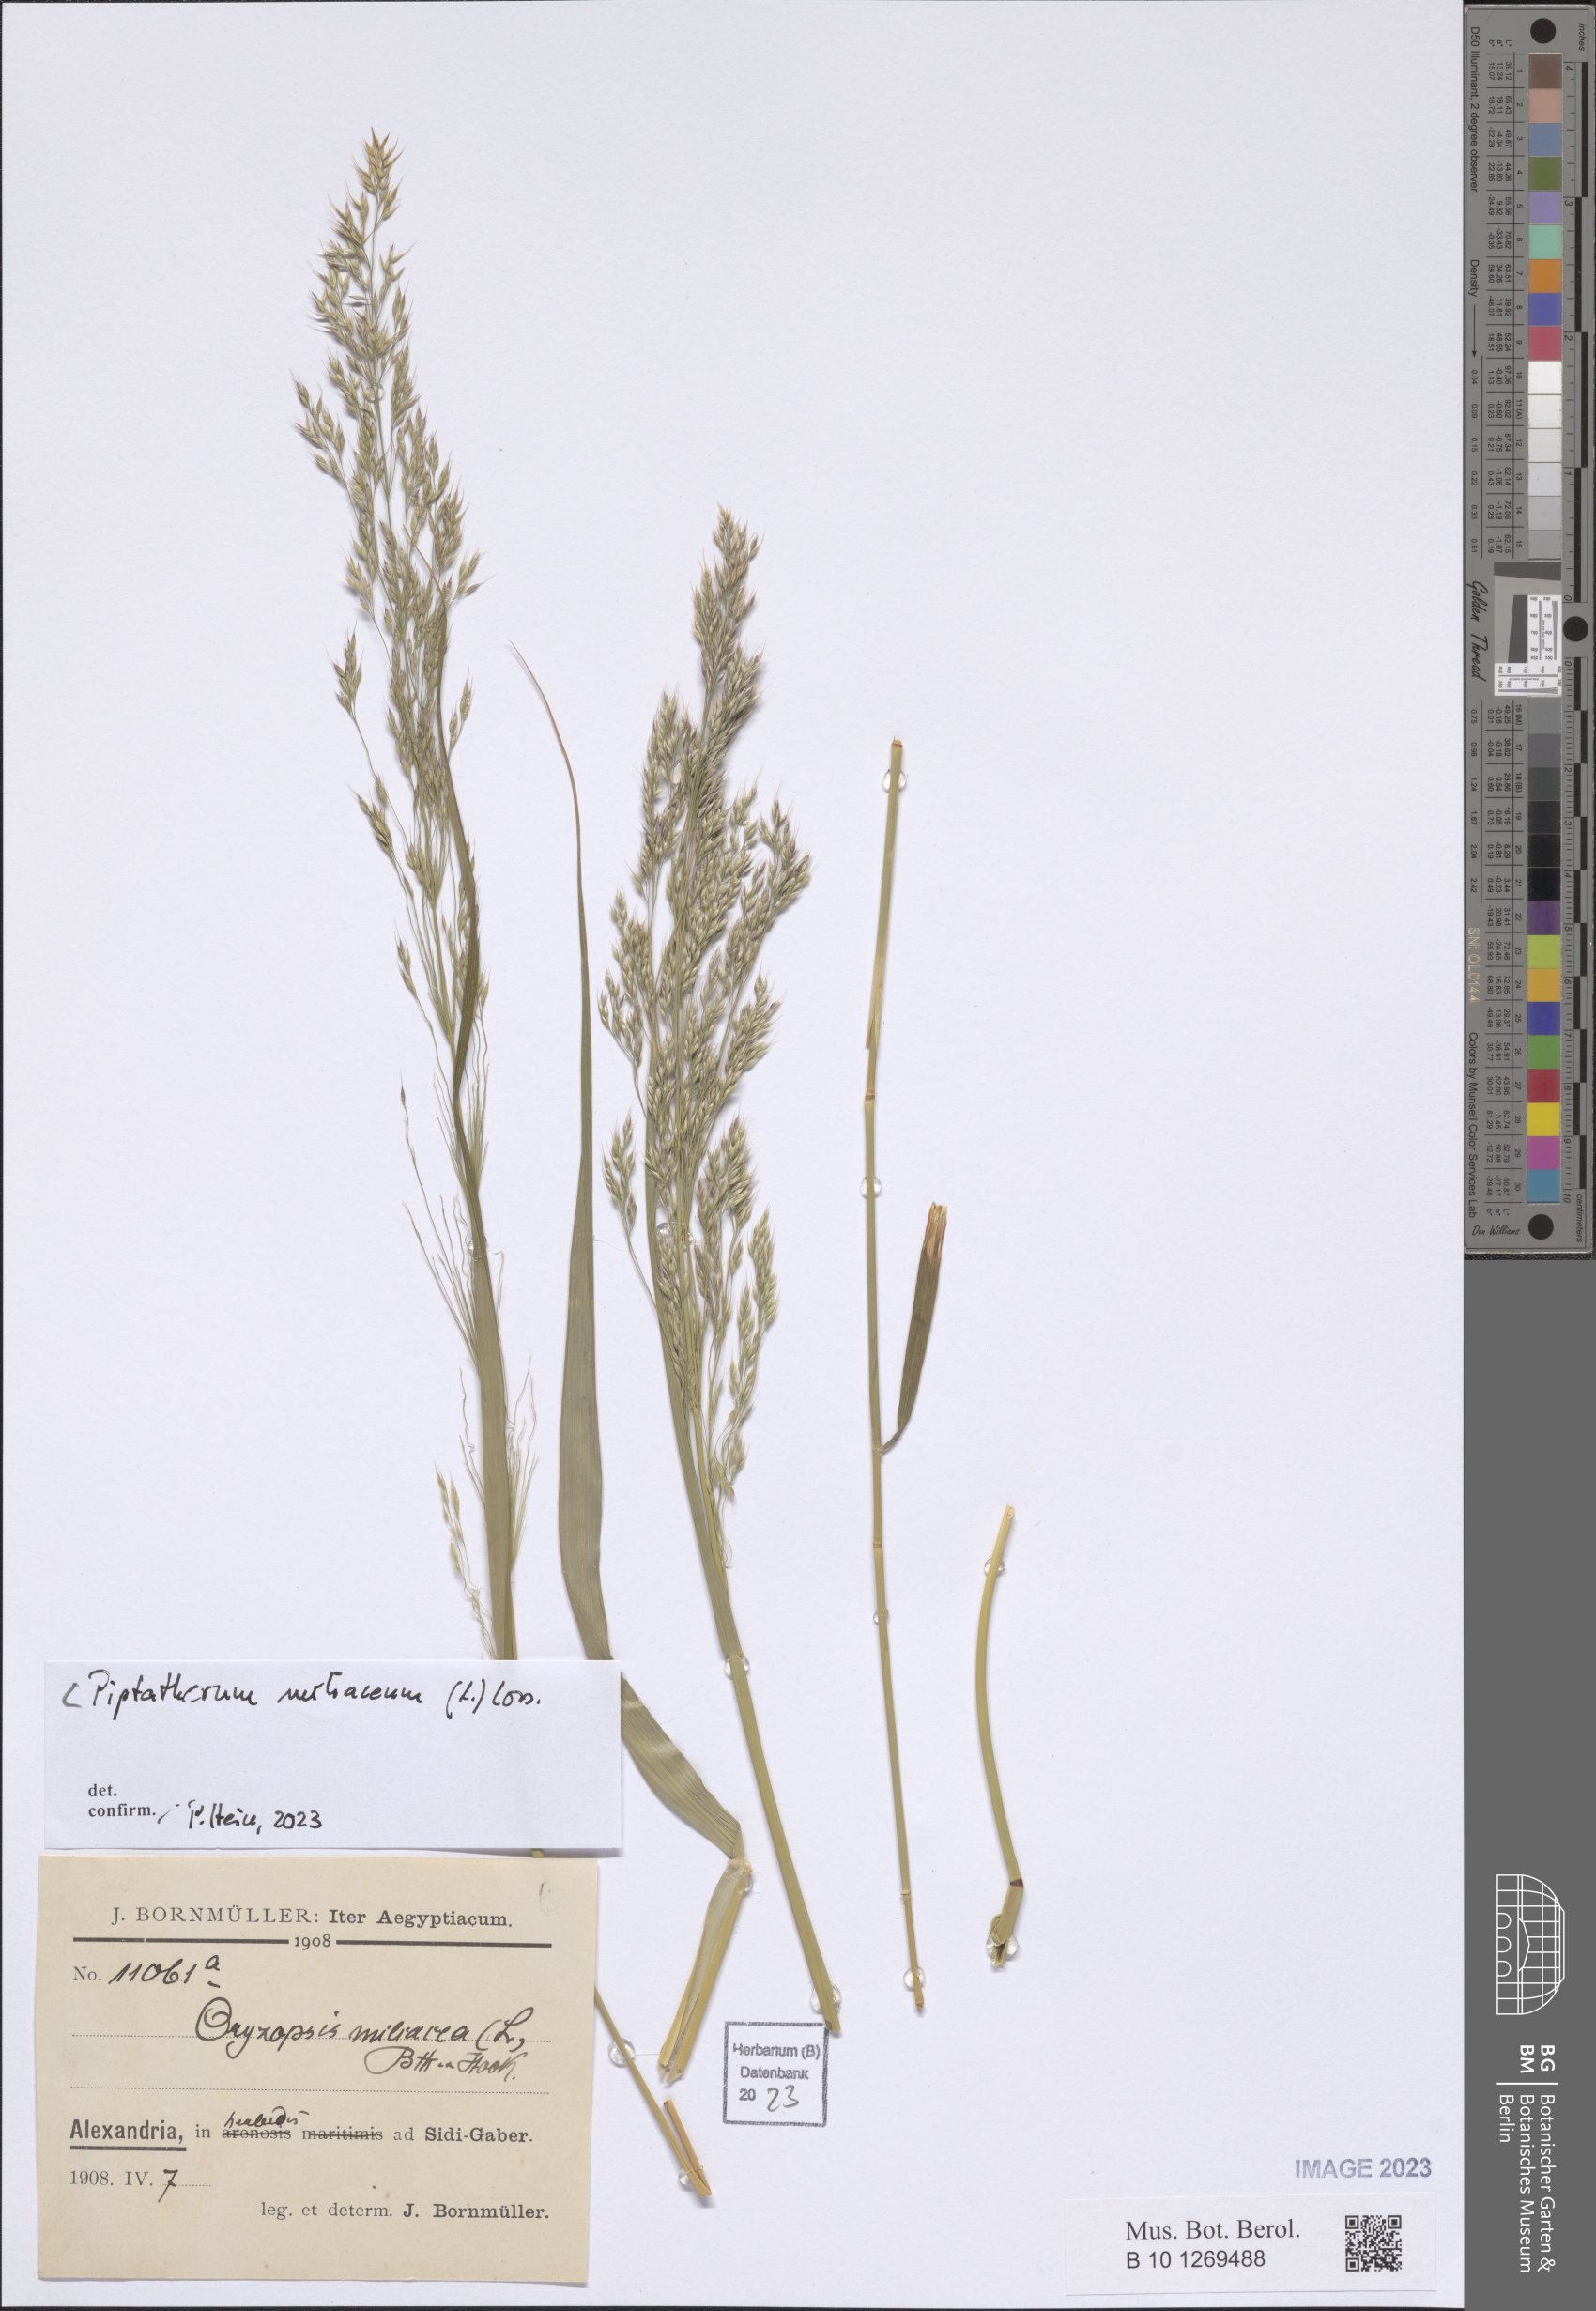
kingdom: Plantae
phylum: Tracheophyta
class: Liliopsida
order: Poales
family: Poaceae
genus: Oloptum
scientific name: Oloptum miliaceum
